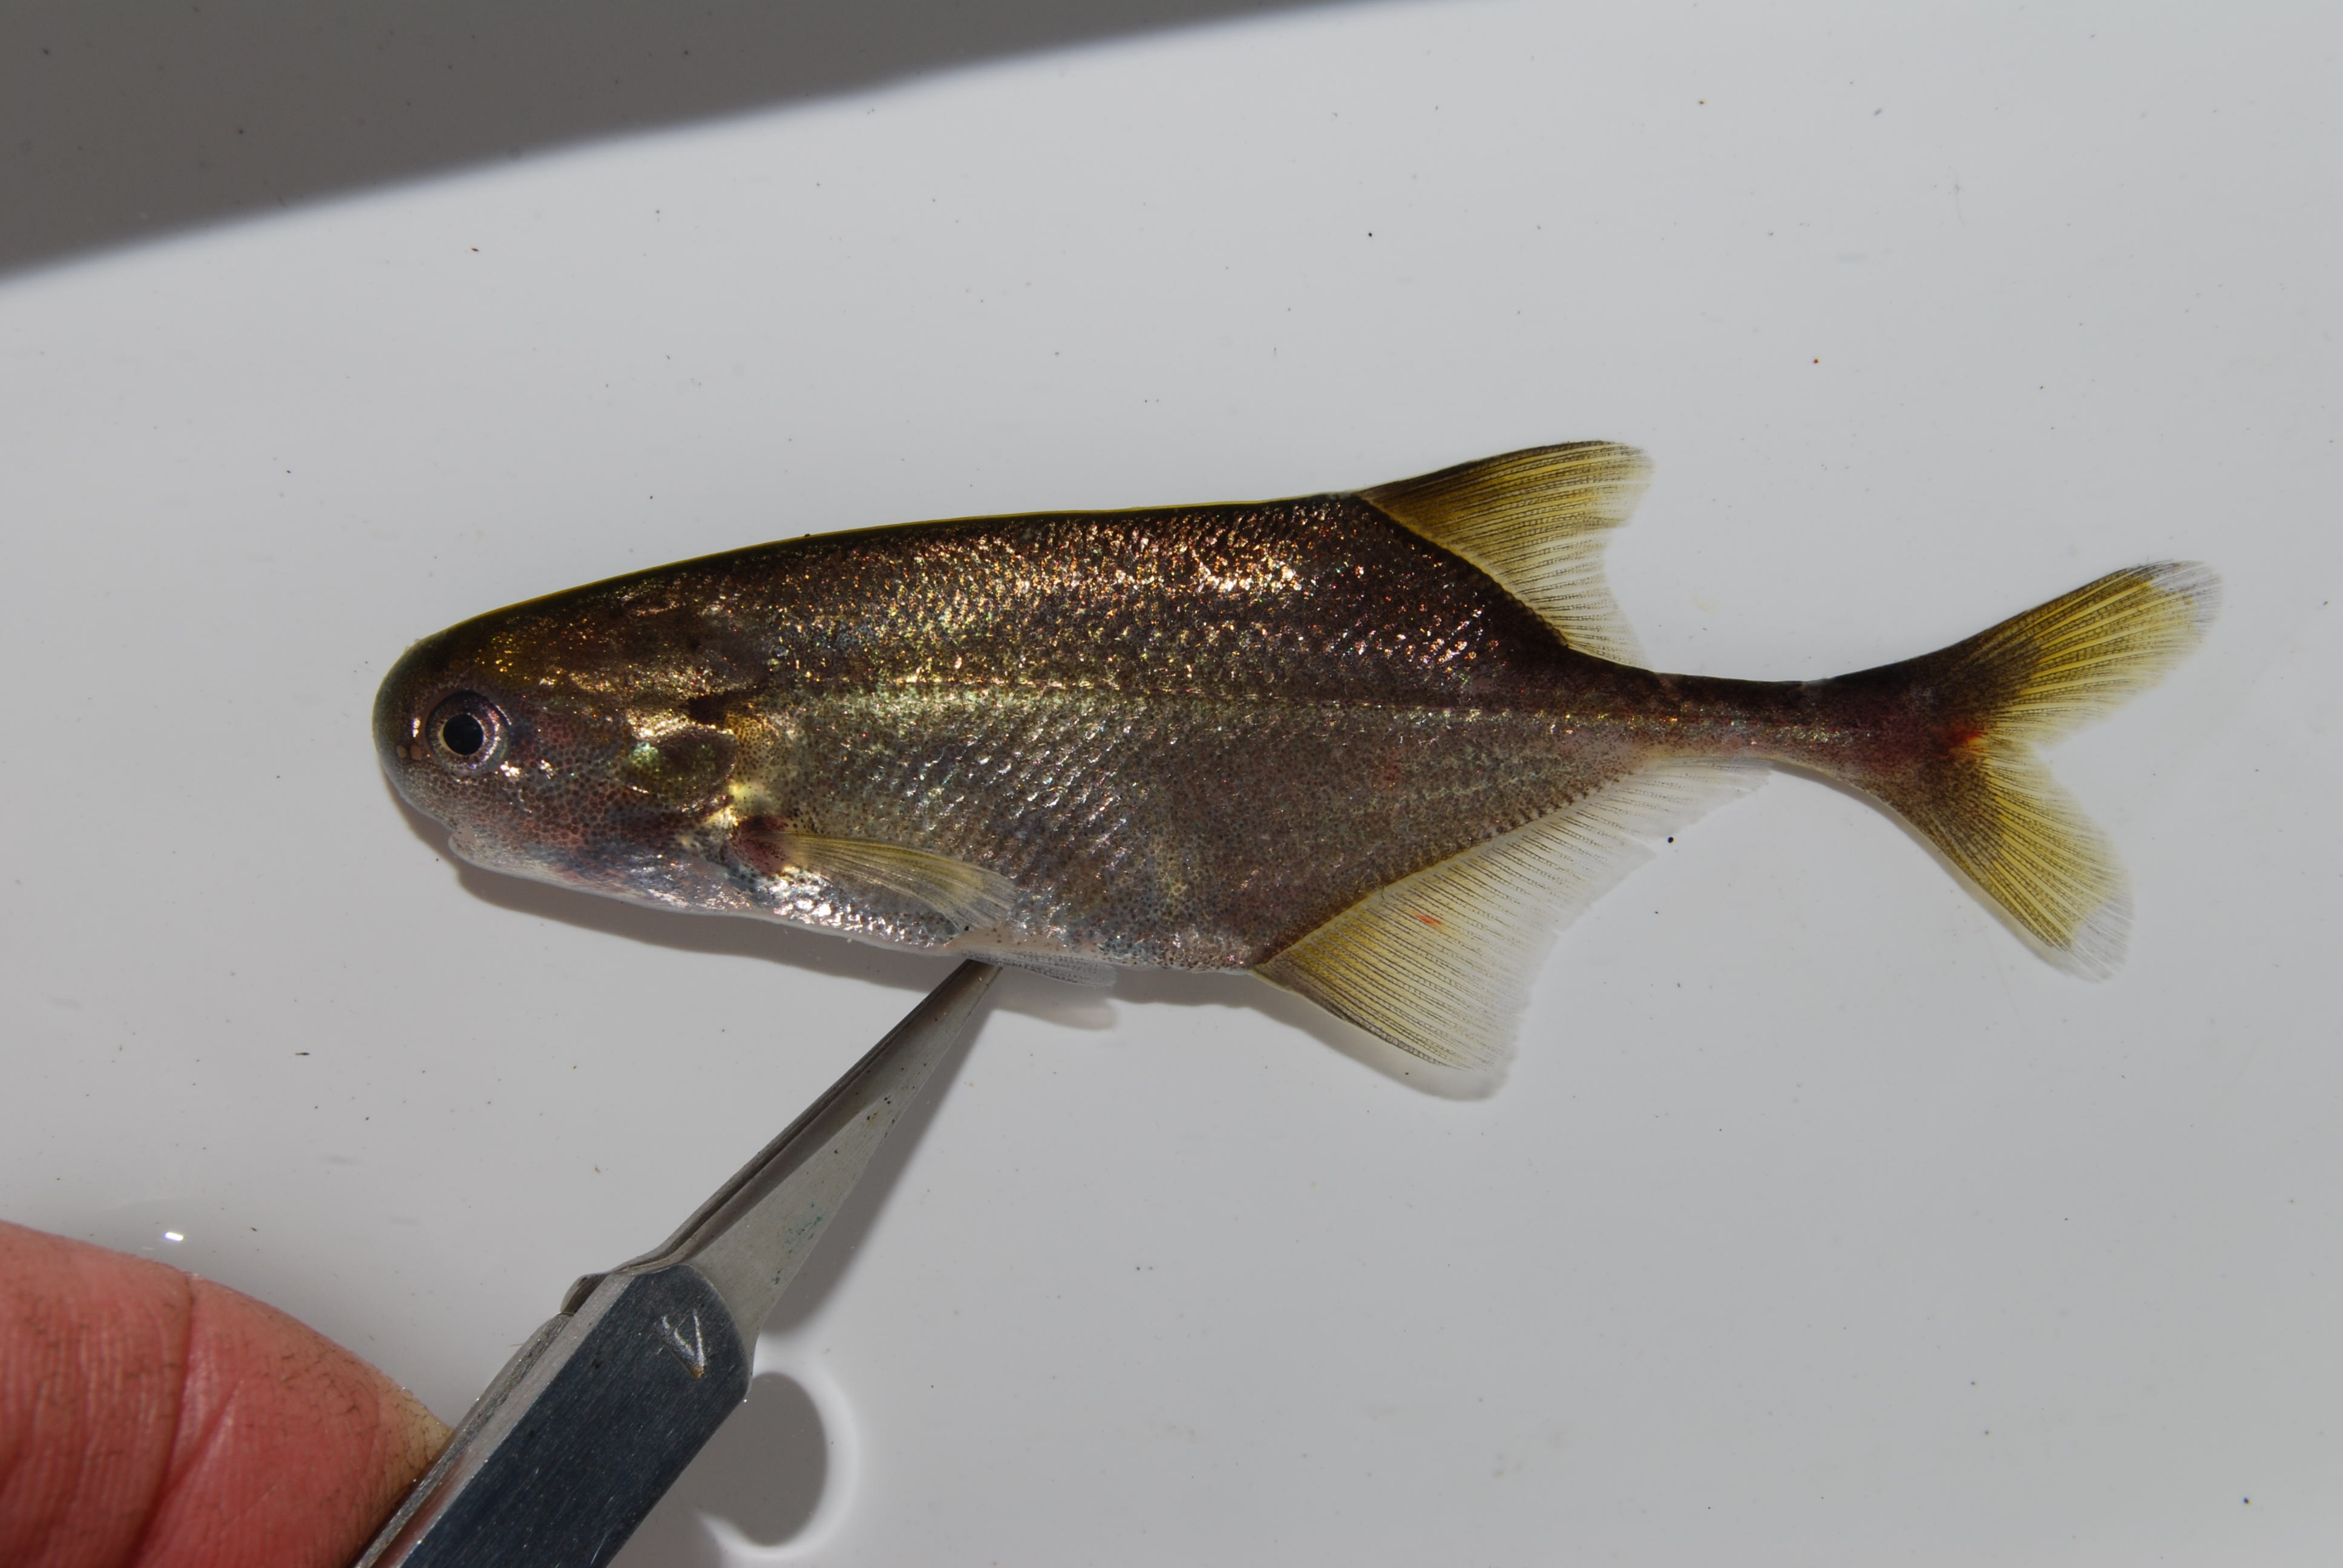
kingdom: Animalia
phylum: Chordata
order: Osteoglossiformes
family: Mormyridae
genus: Petrocephalus
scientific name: Petrocephalus
